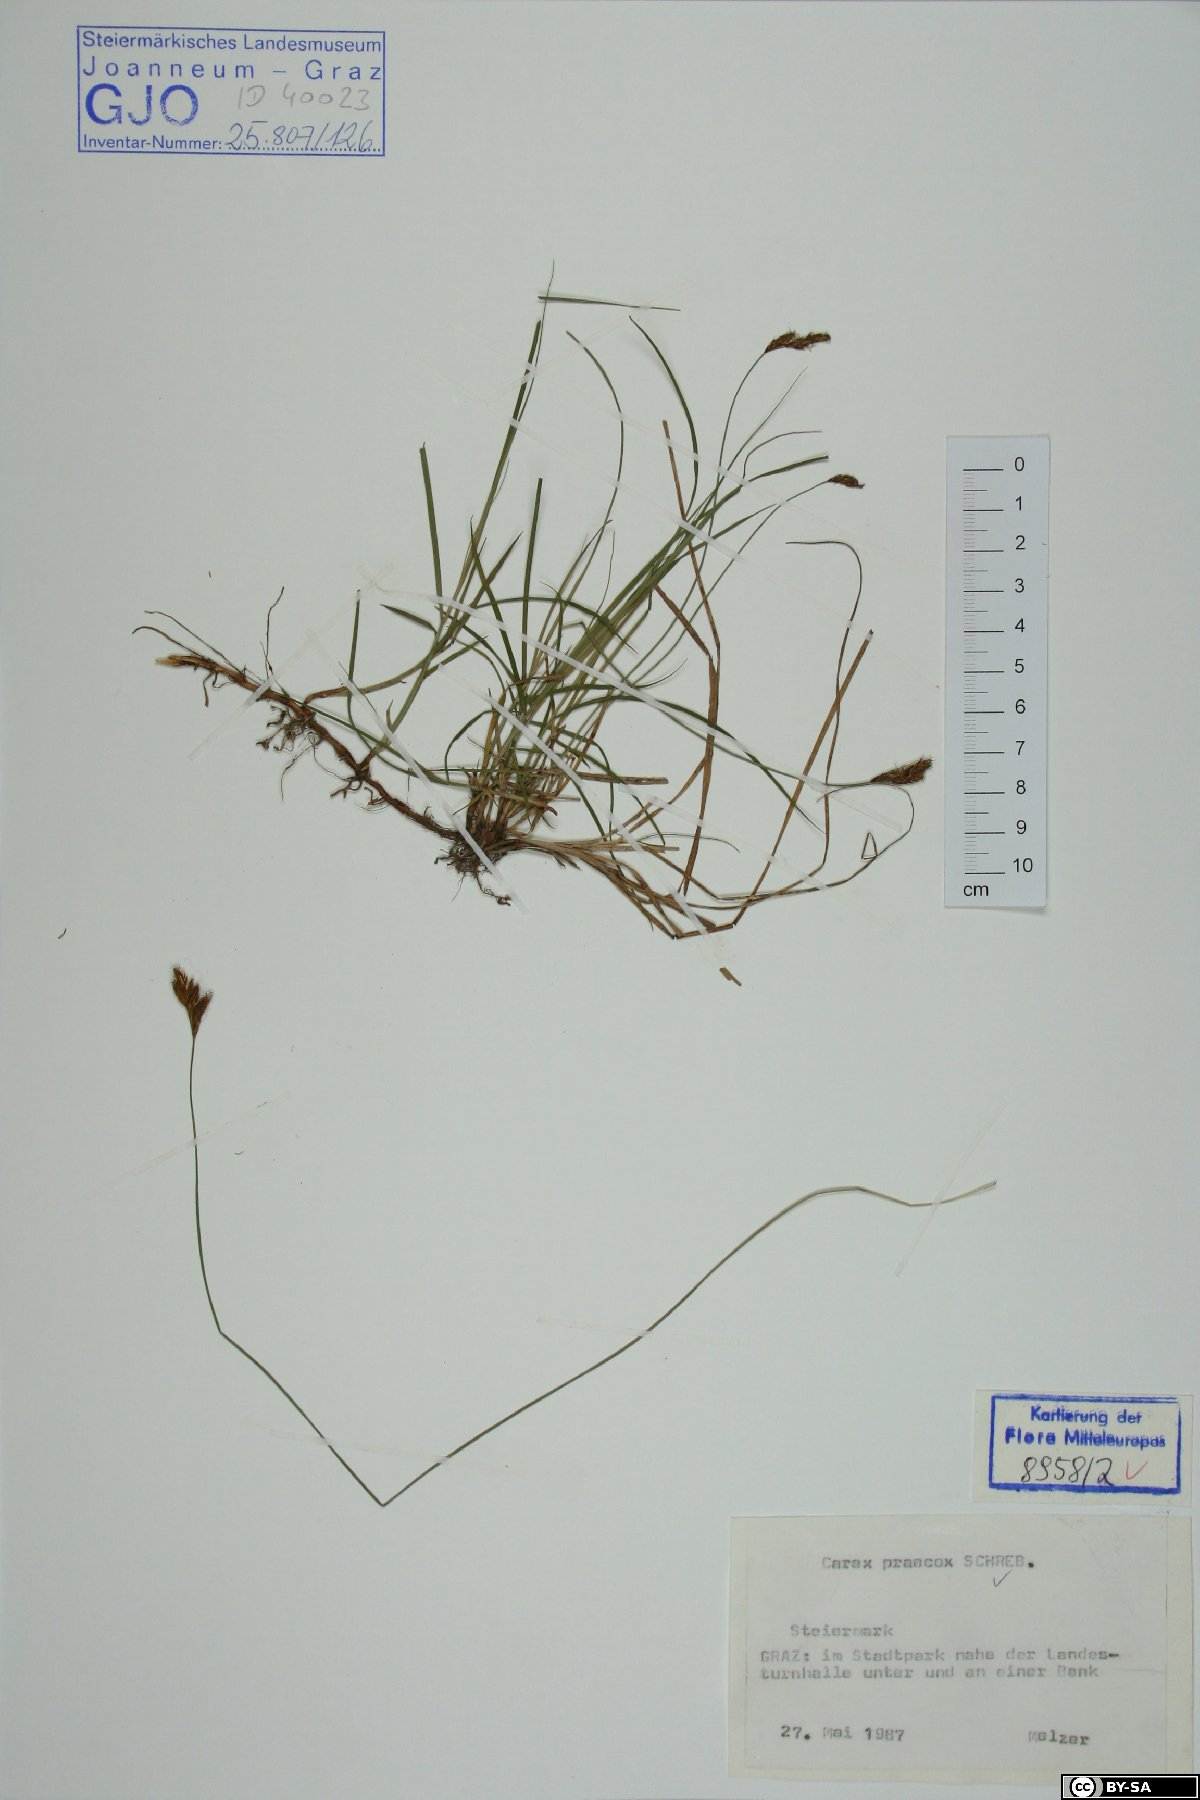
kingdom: Plantae
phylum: Tracheophyta
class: Liliopsida
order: Poales
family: Cyperaceae
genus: Carex
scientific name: Carex praecox
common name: Early sedge
